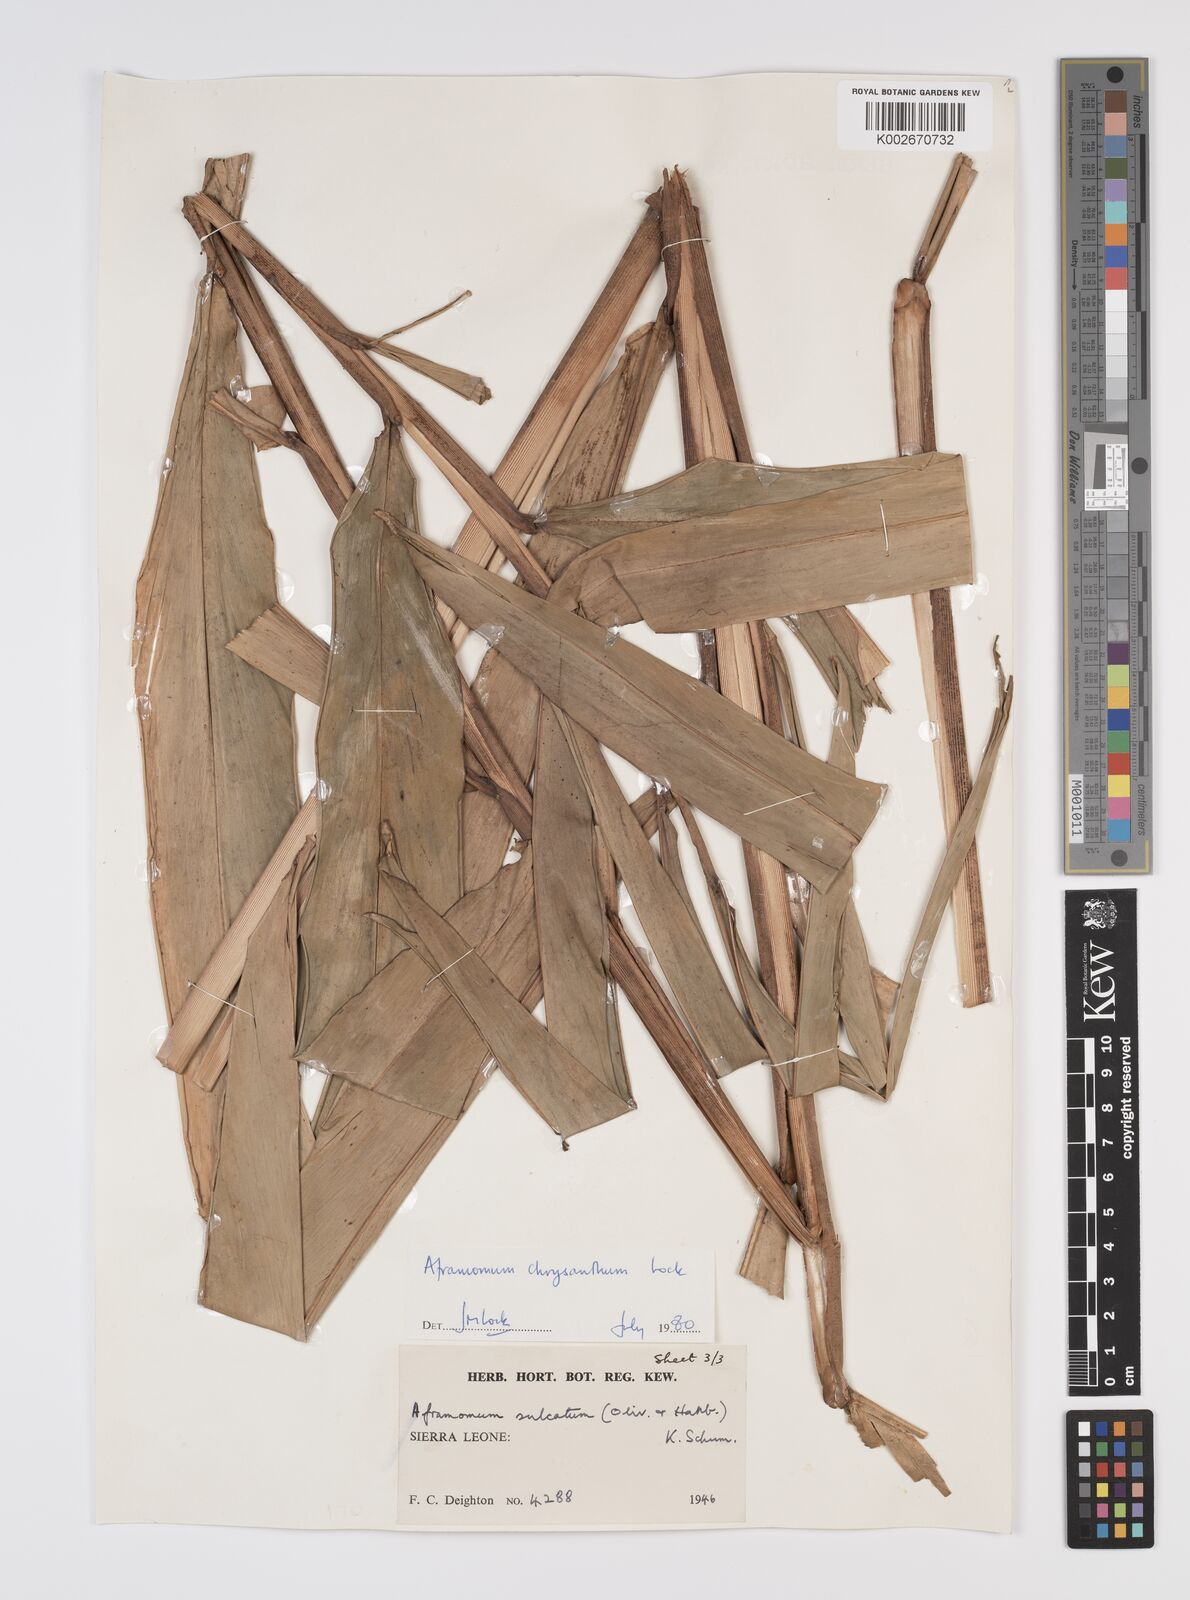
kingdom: Plantae
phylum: Tracheophyta
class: Liliopsida
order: Zingiberales
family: Zingiberaceae
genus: Aframomum
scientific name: Aframomum chrysanthum
